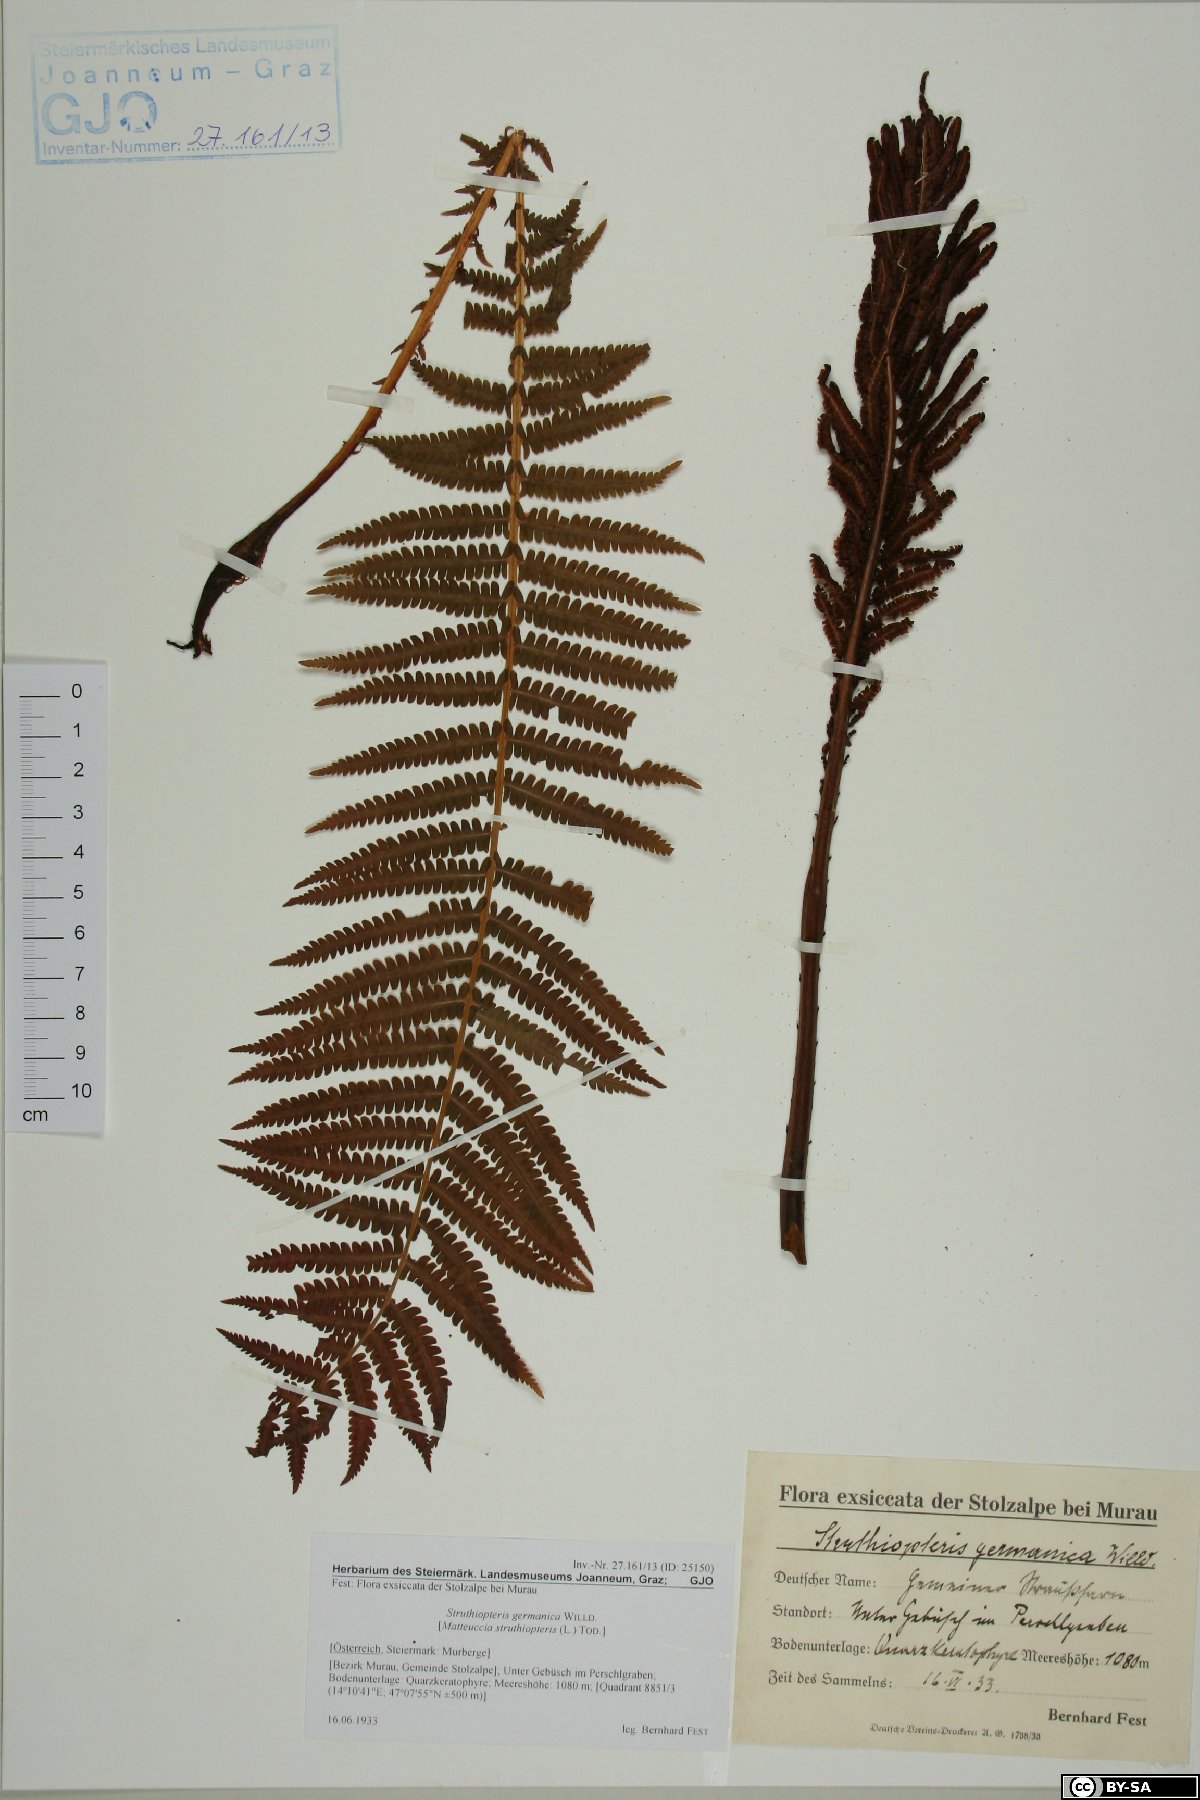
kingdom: Plantae
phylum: Tracheophyta
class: Polypodiopsida
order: Polypodiales
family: Onocleaceae
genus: Matteuccia
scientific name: Matteuccia struthiopteris
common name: Ostrich fern
